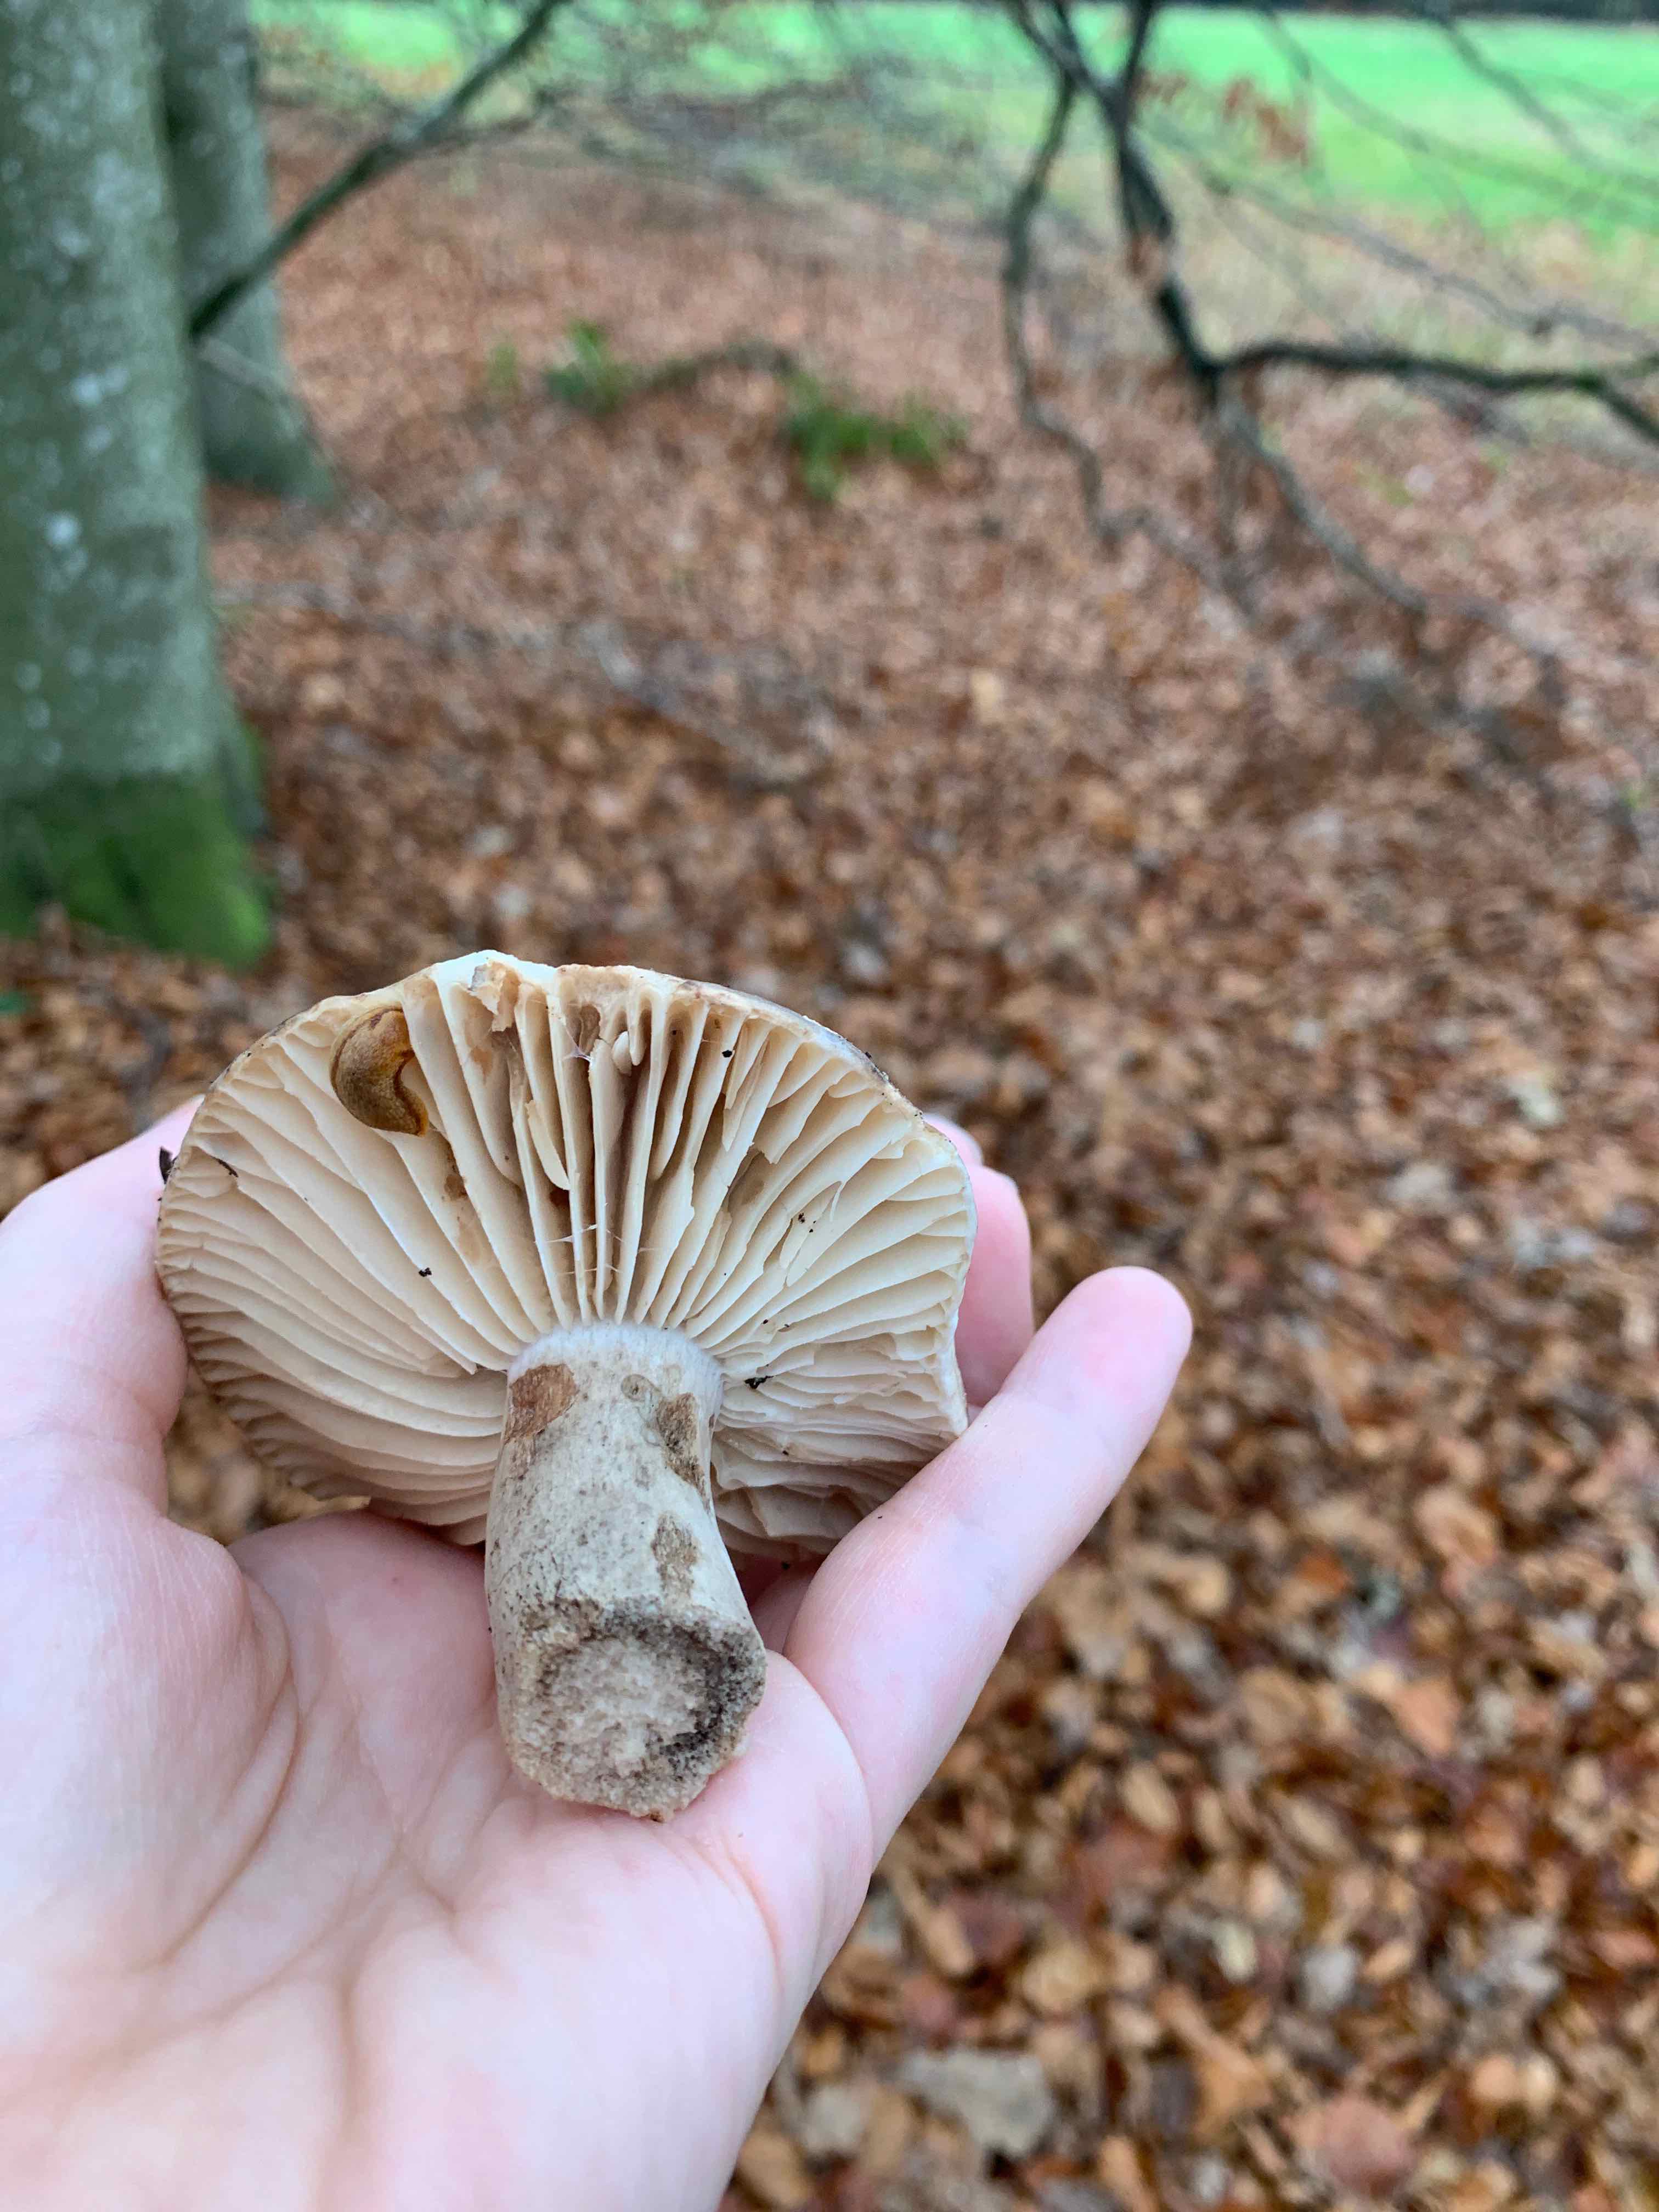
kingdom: Fungi
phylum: Basidiomycota
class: Agaricomycetes
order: Russulales
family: Russulaceae
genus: Russula
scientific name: Russula adusta
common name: sværtende skørhat
